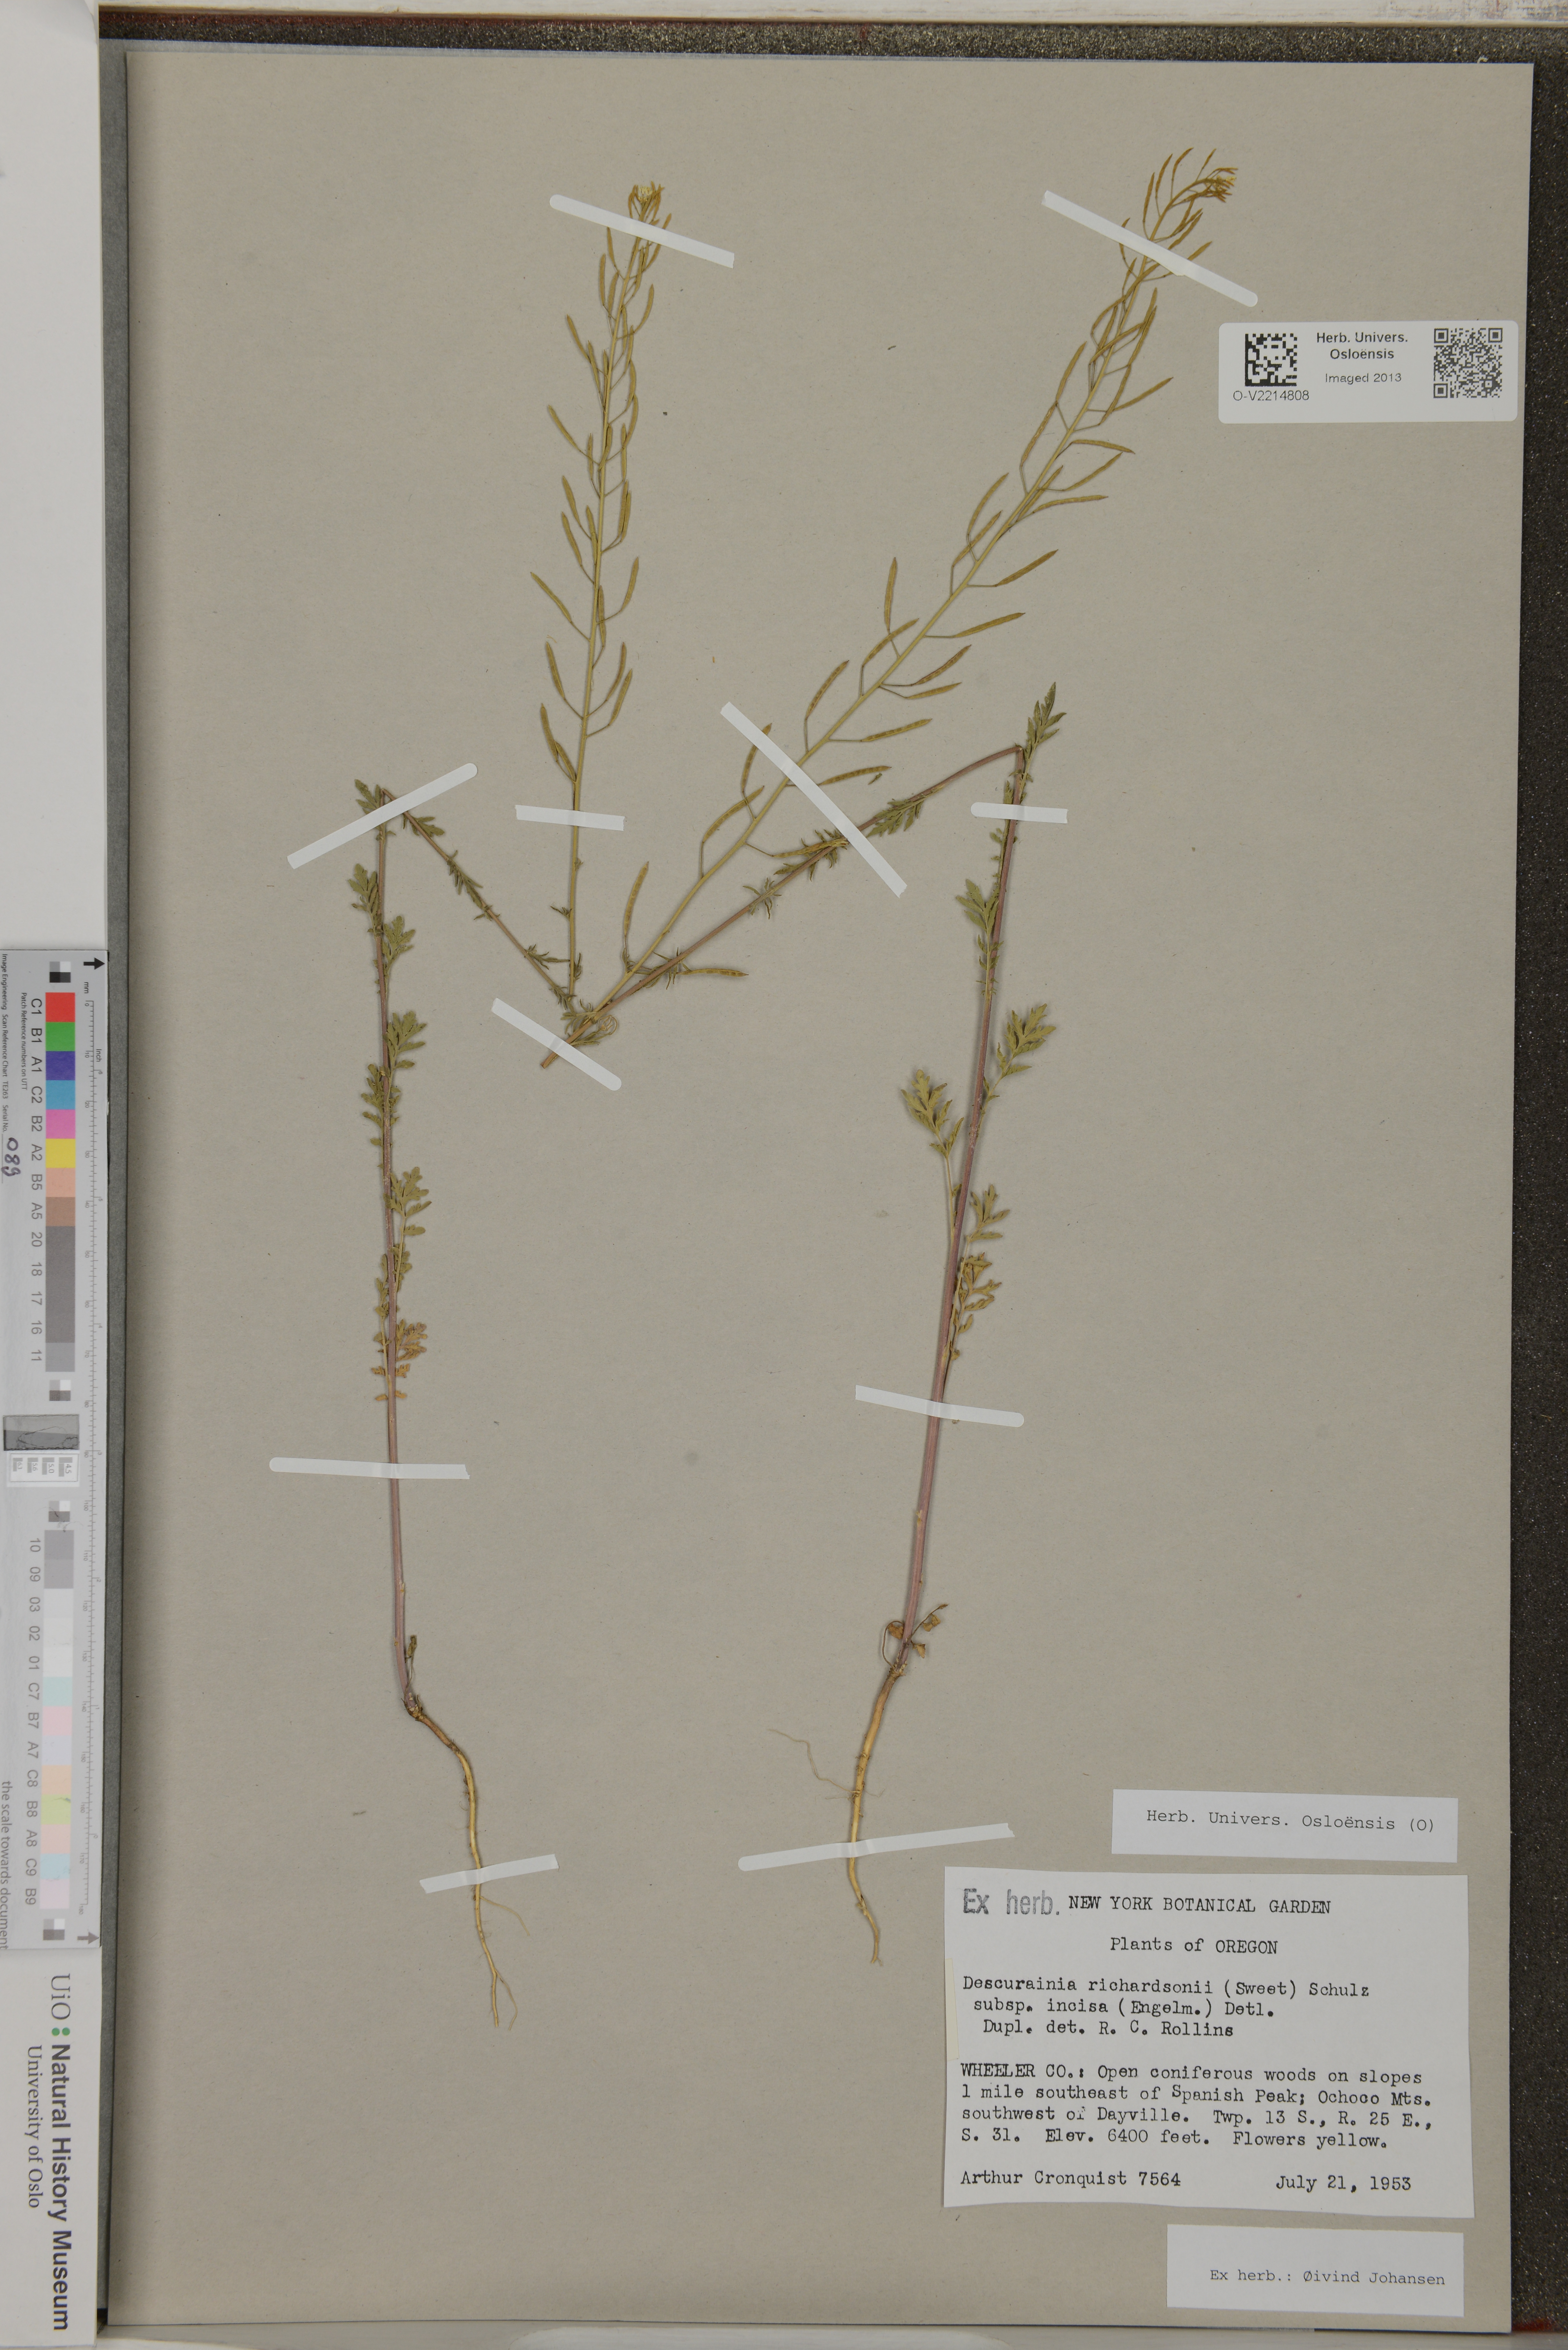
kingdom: Plantae
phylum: Tracheophyta
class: Magnoliopsida
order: Brassicales
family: Brassicaceae
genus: Descurainia
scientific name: Descurainia richardsonii
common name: Western tansy-mustard
